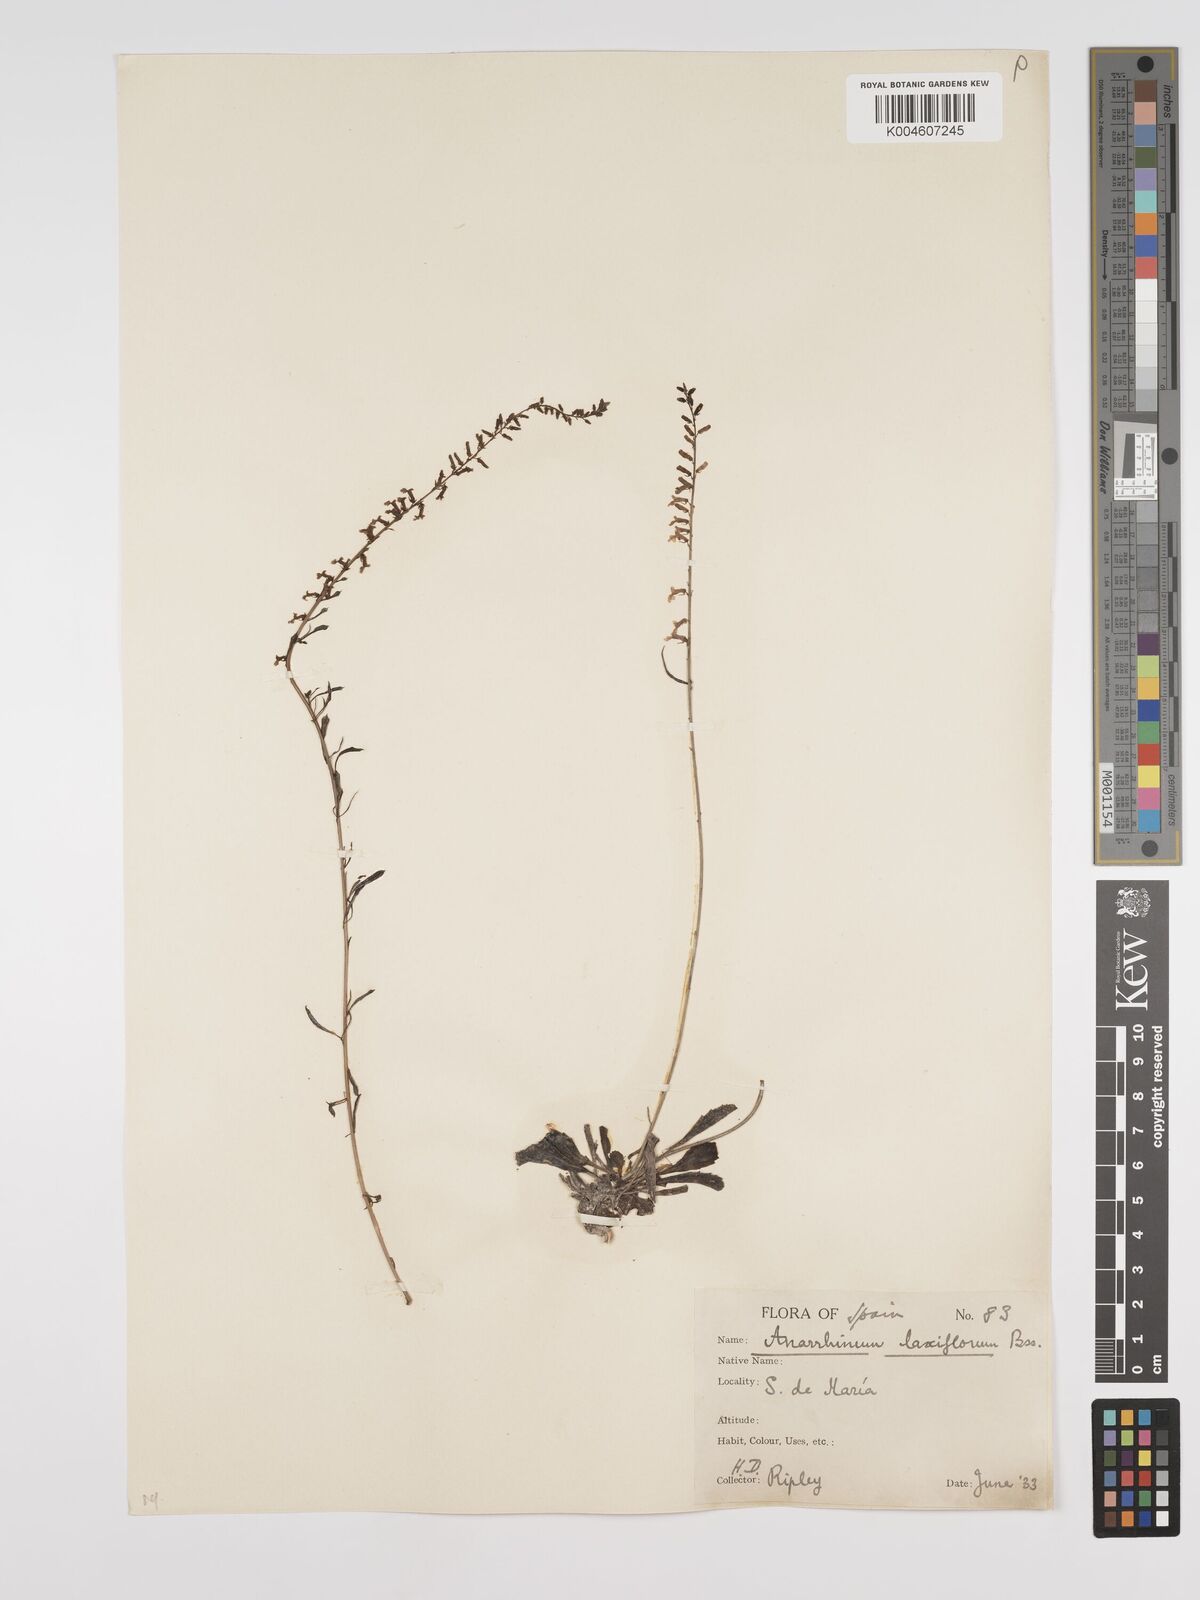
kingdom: Plantae
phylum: Tracheophyta
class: Magnoliopsida
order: Lamiales
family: Plantaginaceae
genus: Anarrhinum
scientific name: Anarrhinum laxiflorum
